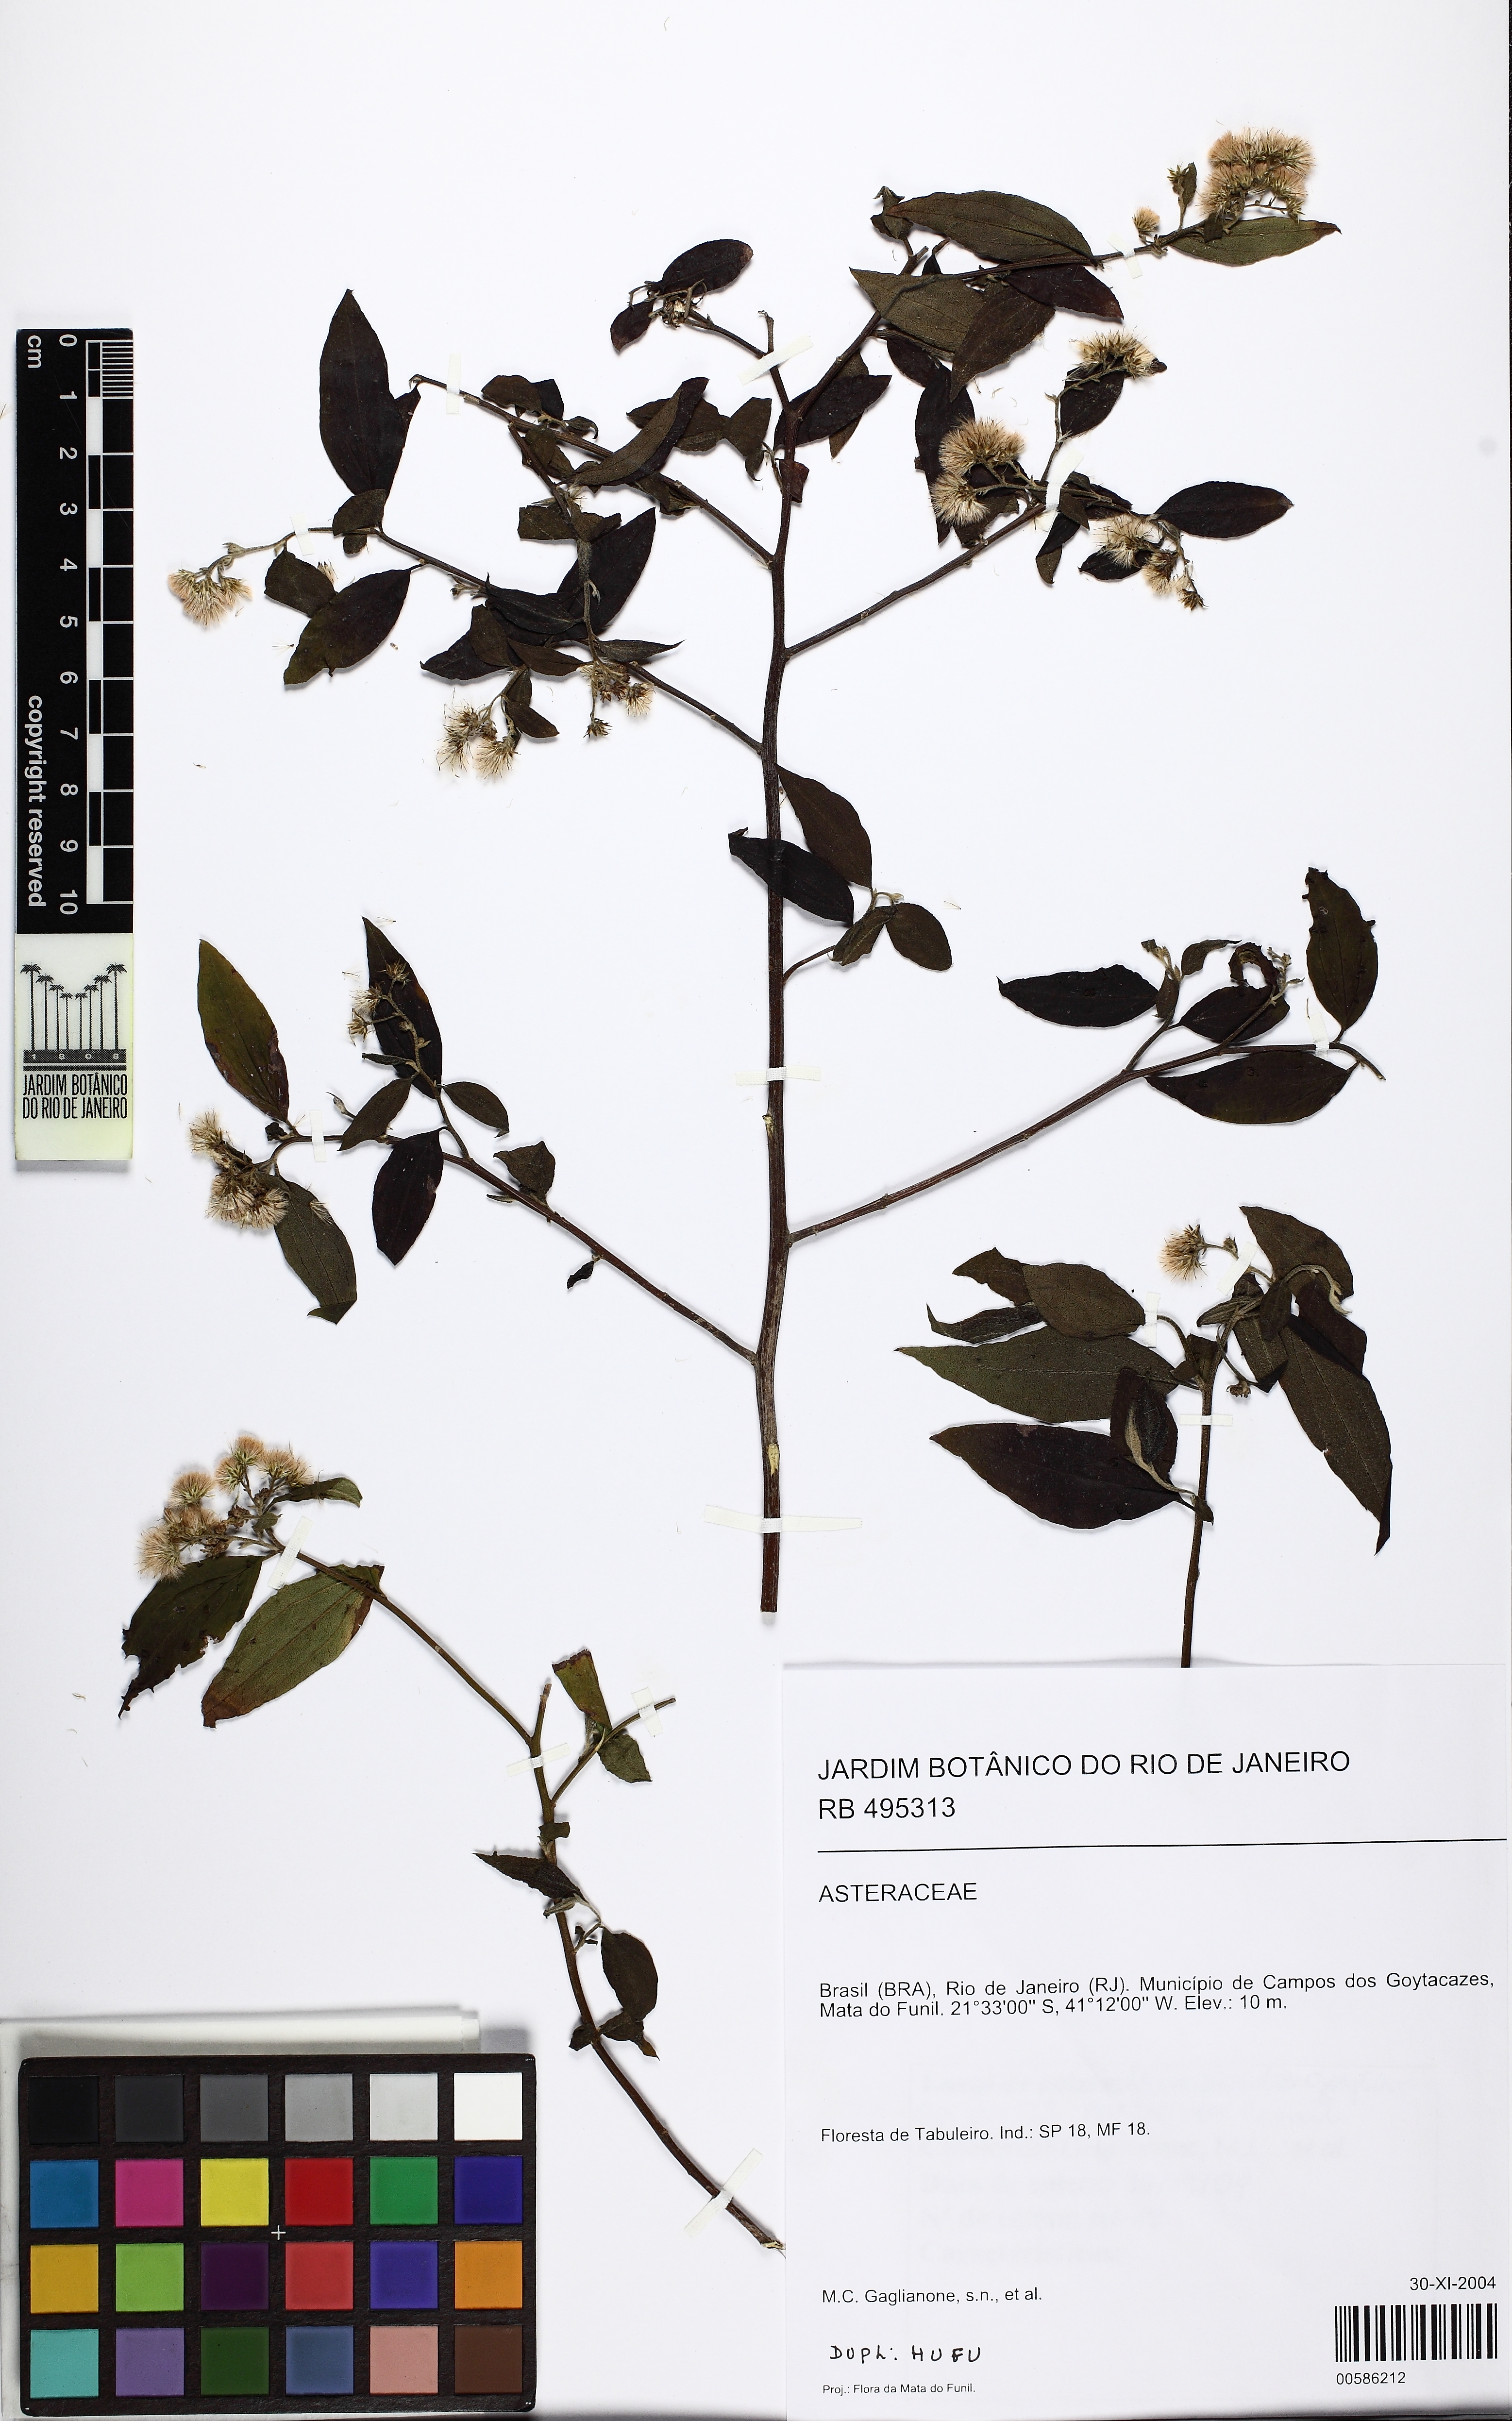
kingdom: Plantae
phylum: Tracheophyta
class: Magnoliopsida
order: Asterales
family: Asteraceae
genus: Baccharis
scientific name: Baccharis serrulata
